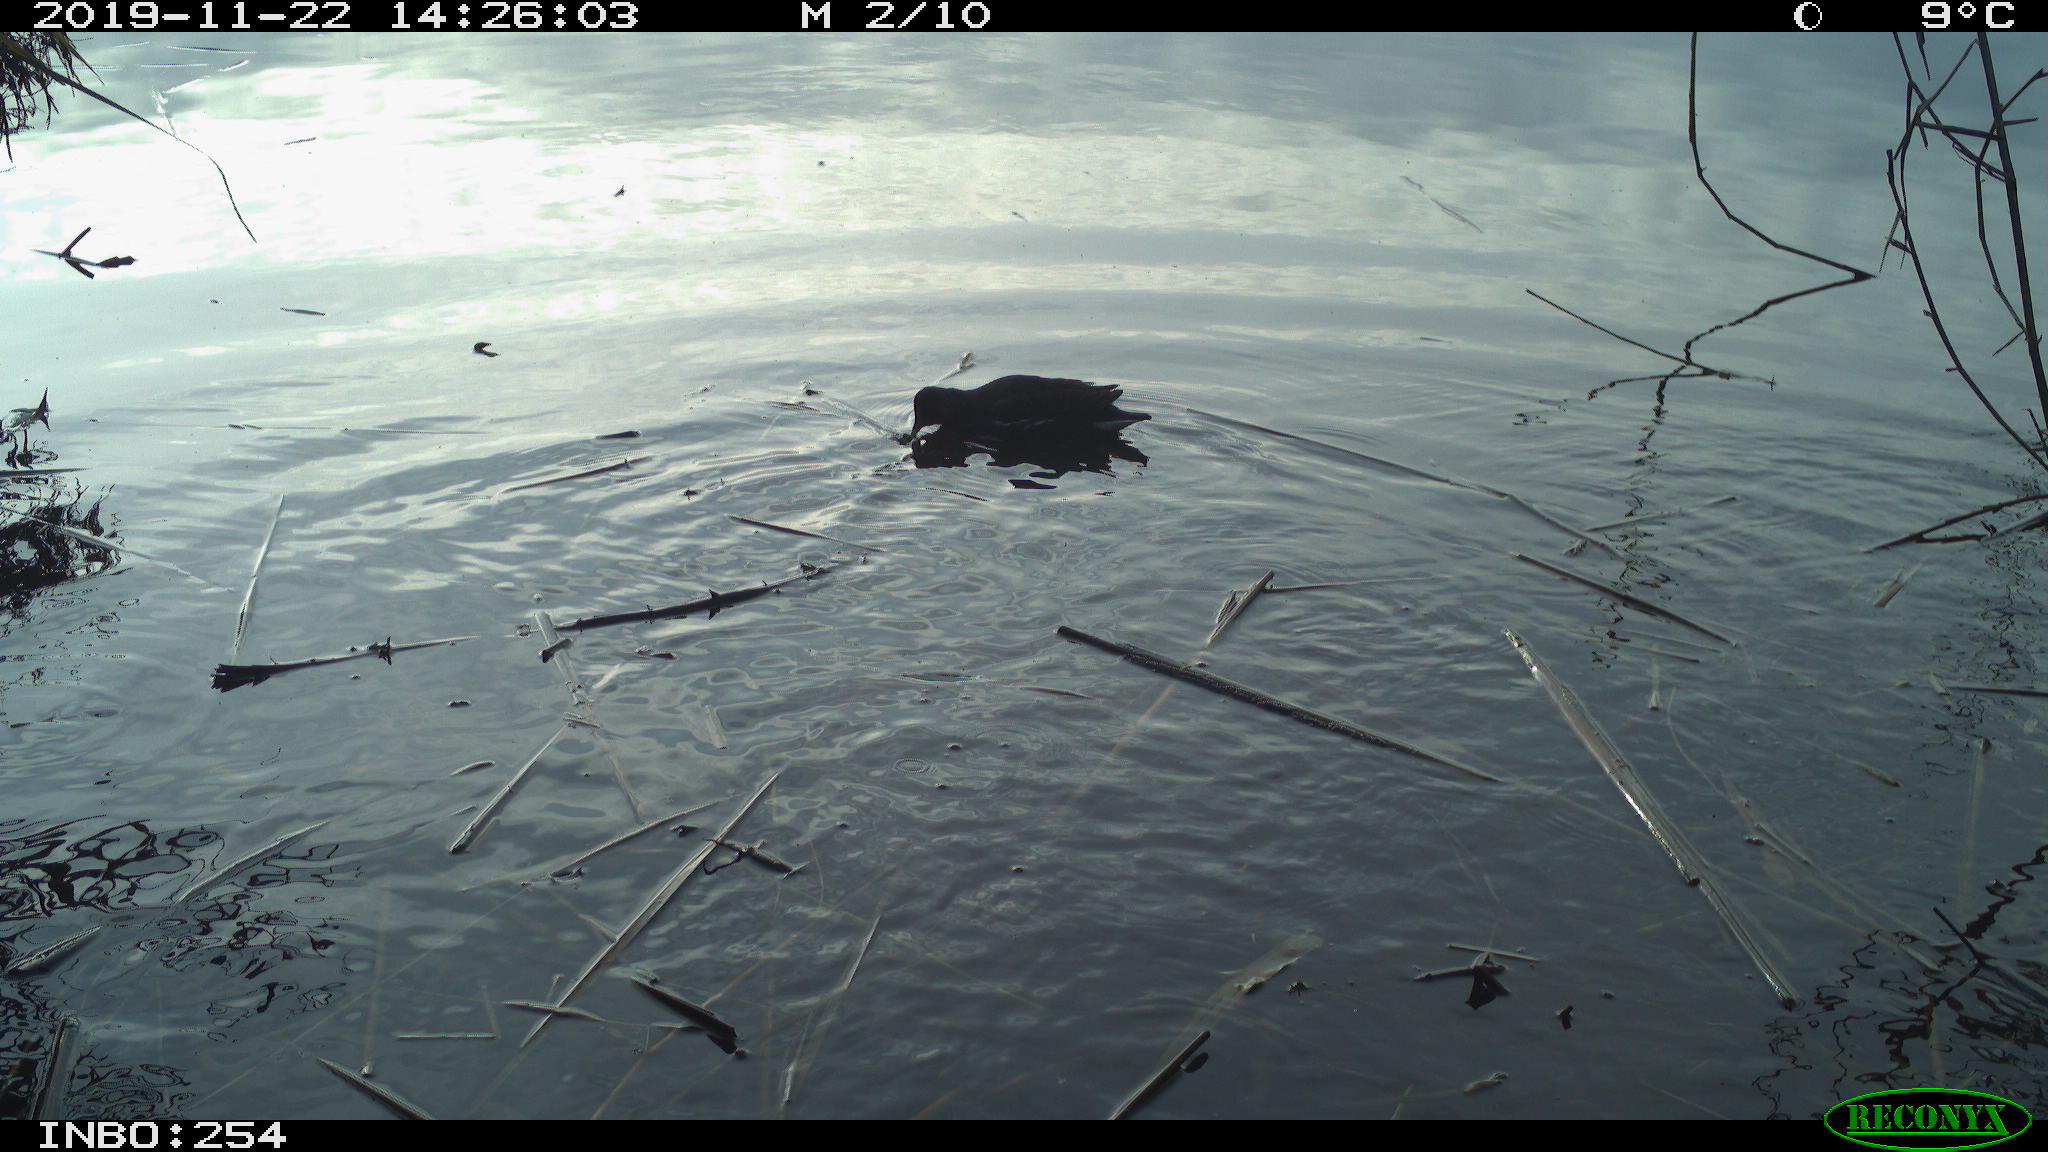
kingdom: Animalia
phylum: Chordata
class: Aves
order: Gruiformes
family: Rallidae
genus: Gallinula
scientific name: Gallinula chloropus
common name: Common moorhen
